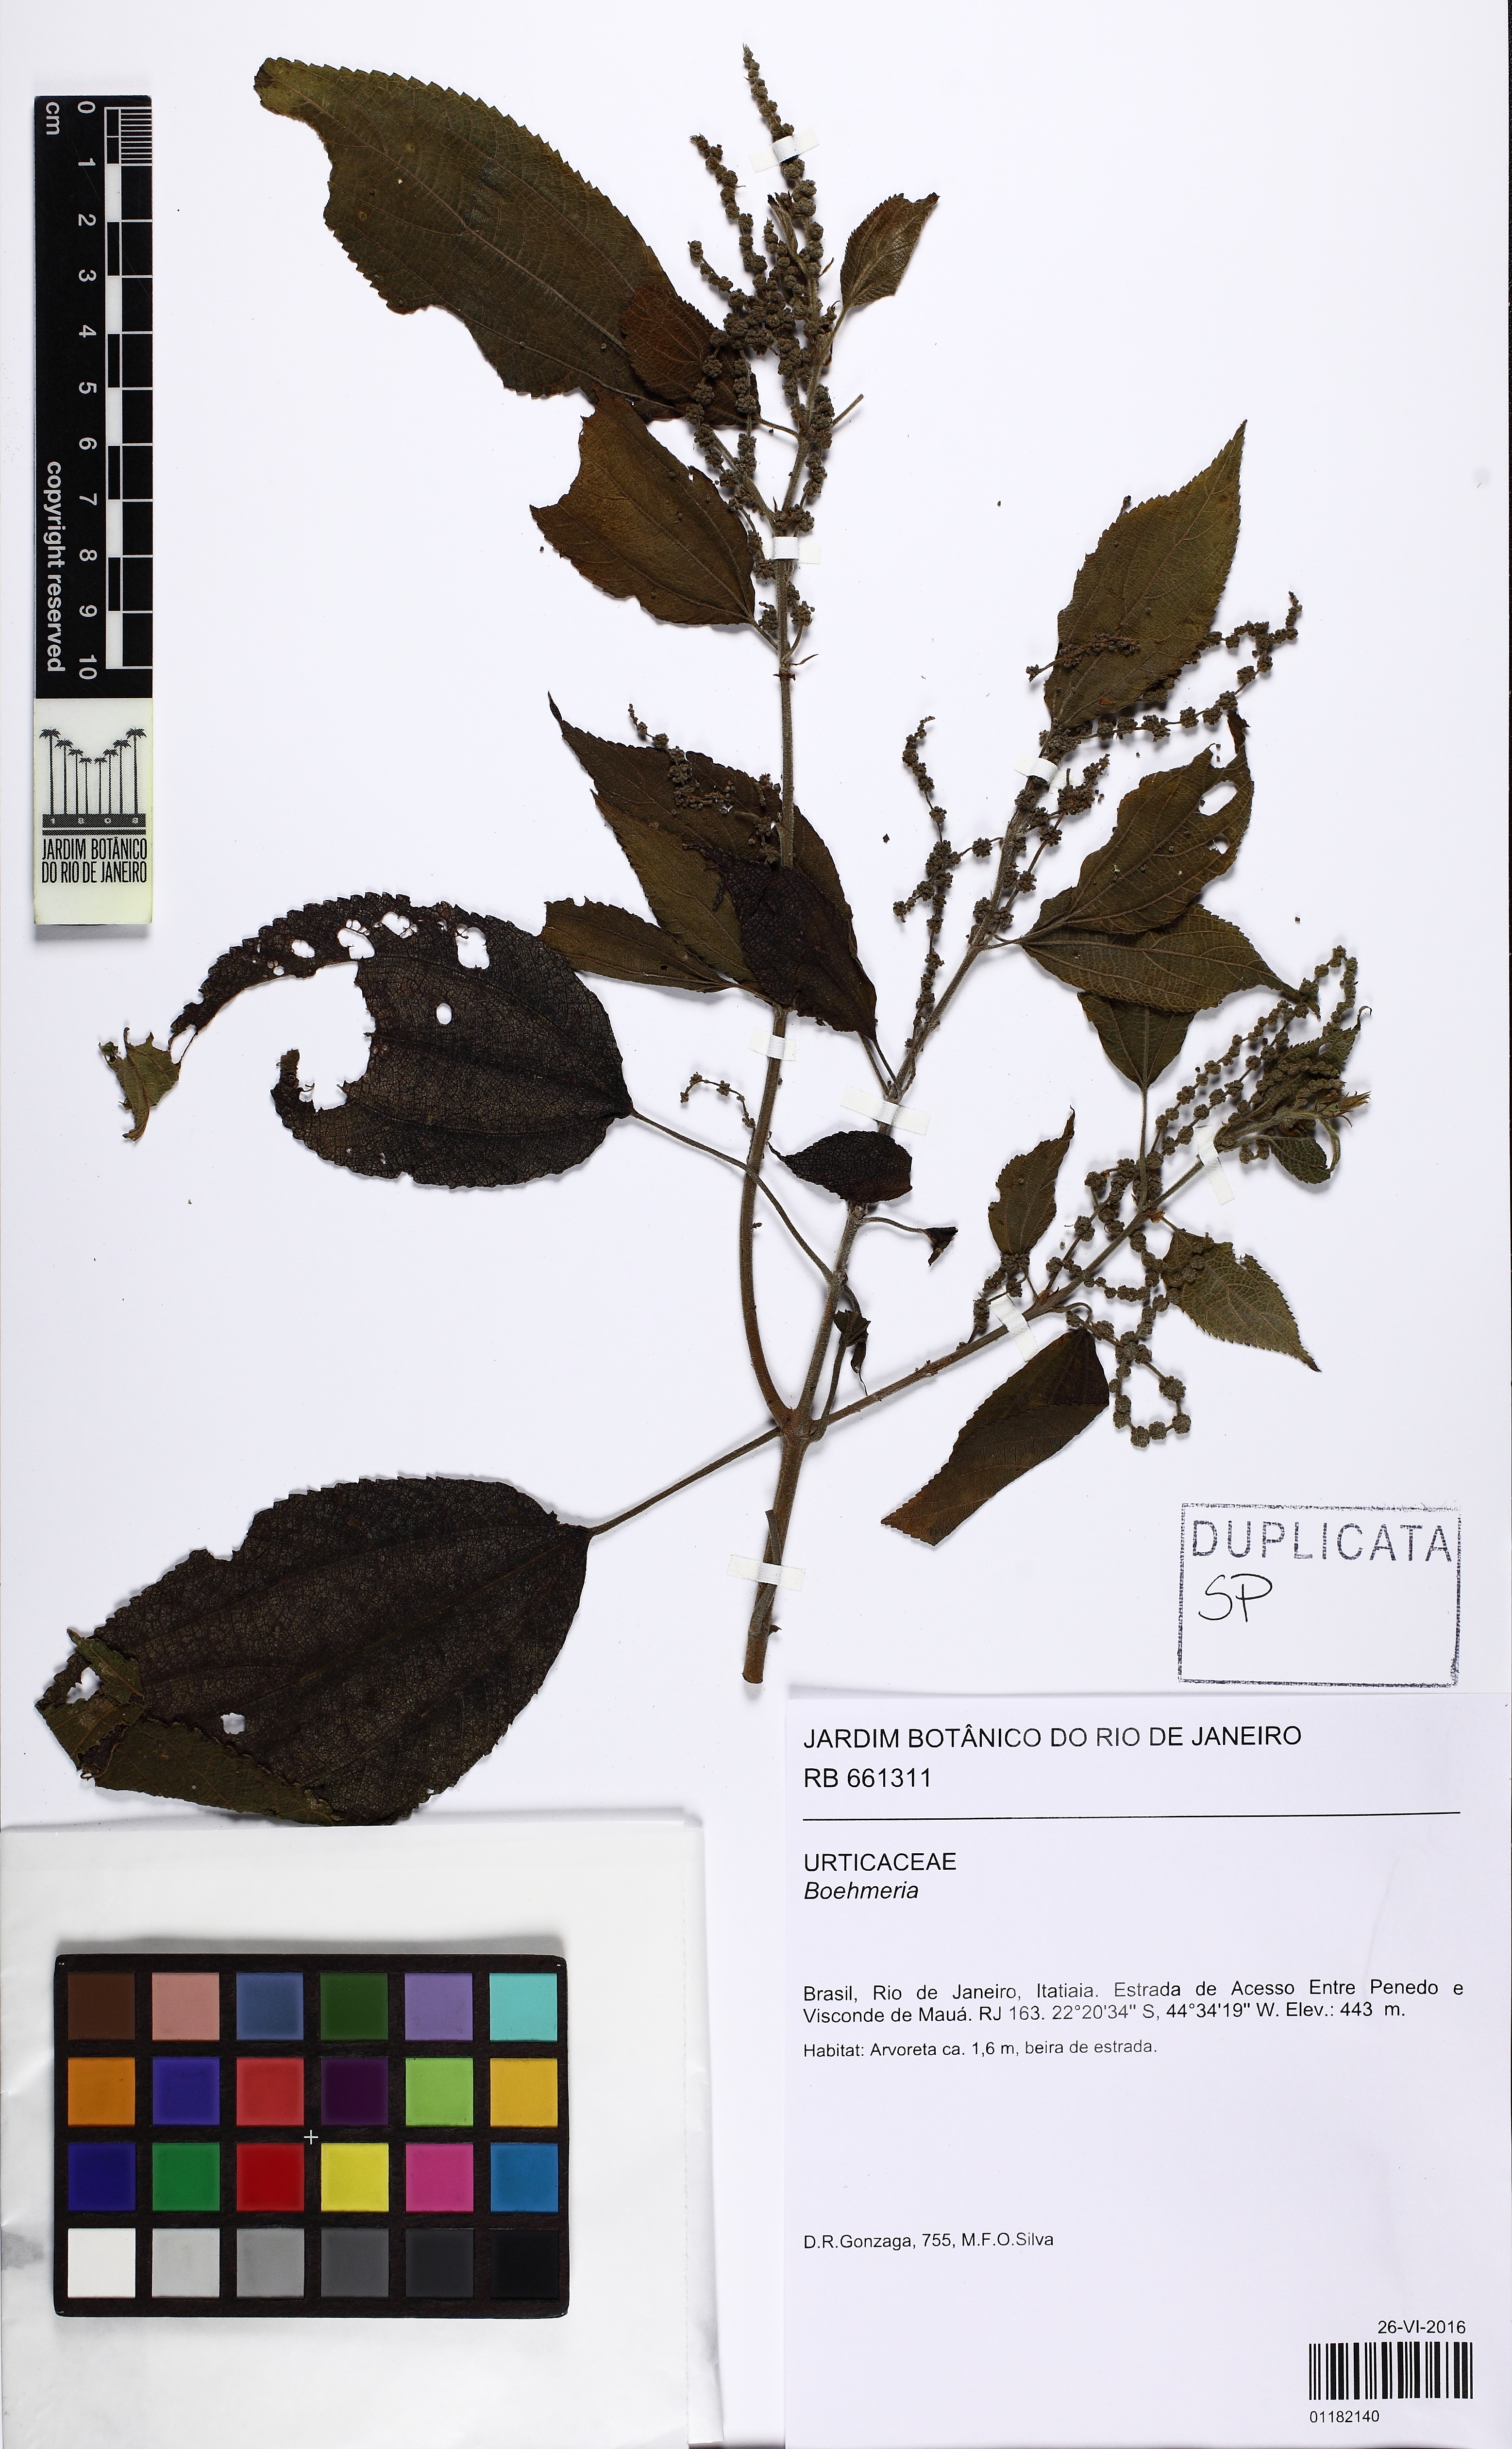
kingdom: Plantae
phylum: Tracheophyta
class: Magnoliopsida
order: Rosales
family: Urticaceae
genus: Boehmeria
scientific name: Boehmeria caudata
